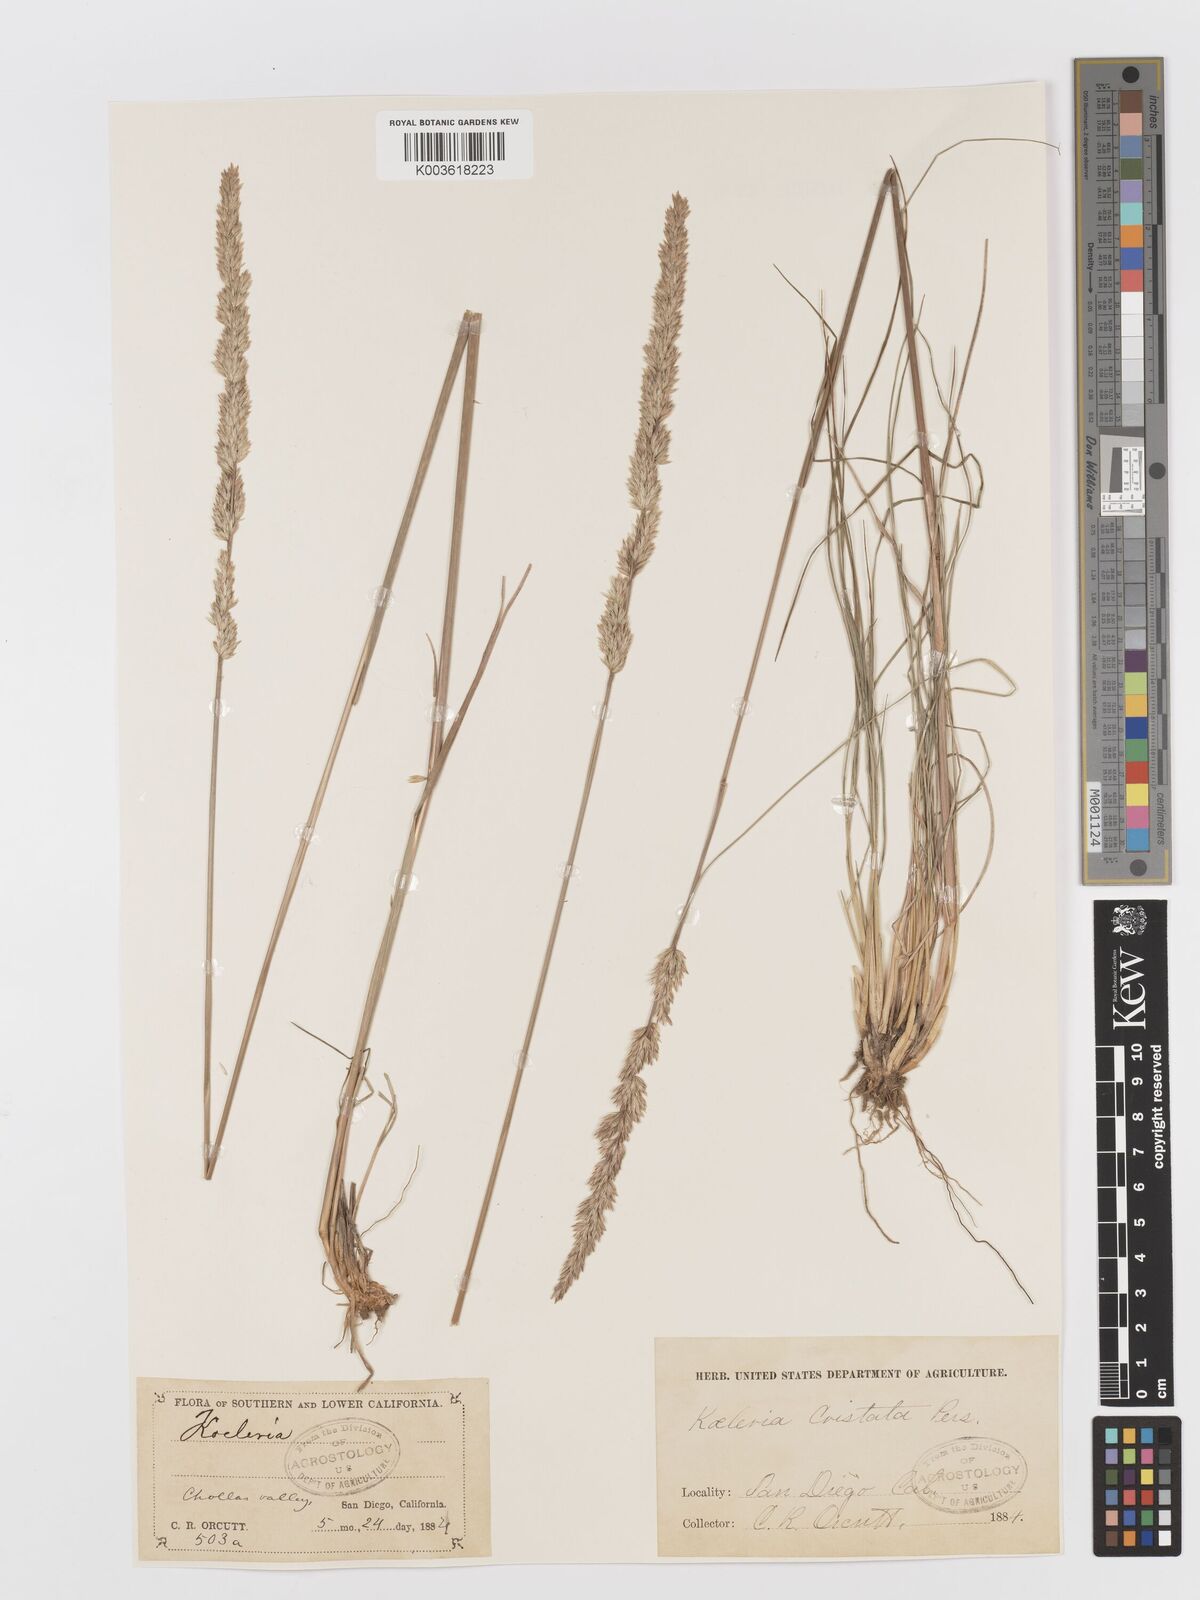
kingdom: Plantae
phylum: Tracheophyta
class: Liliopsida
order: Poales
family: Poaceae
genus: Koeleria
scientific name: Koeleria macrantha
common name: Crested hair-grass
